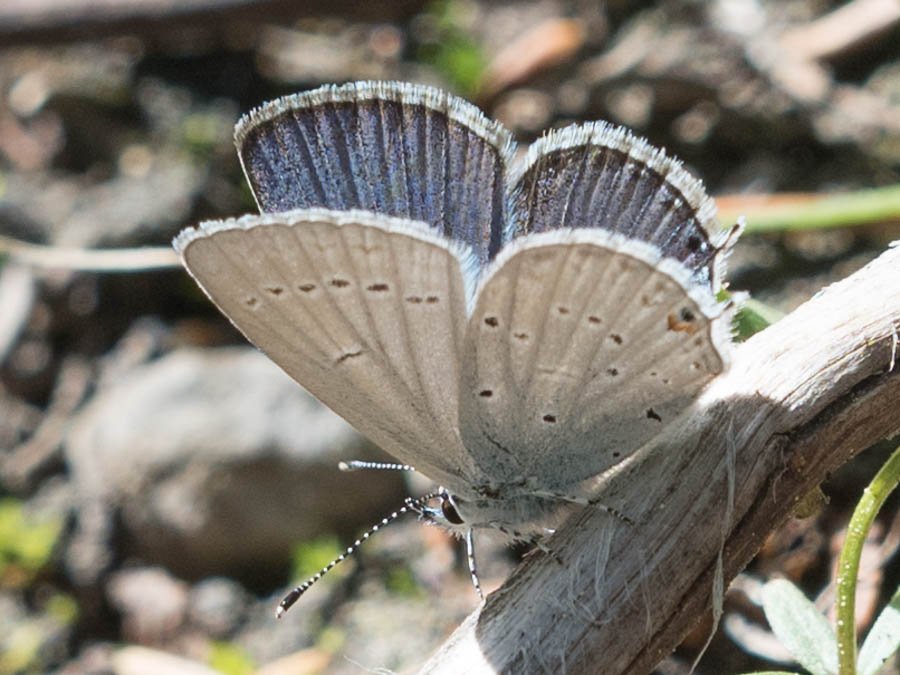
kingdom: Animalia
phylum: Arthropoda
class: Insecta
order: Lepidoptera
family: Lycaenidae
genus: Elkalyce
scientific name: Elkalyce amyntula
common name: Western Tailed-Blue
